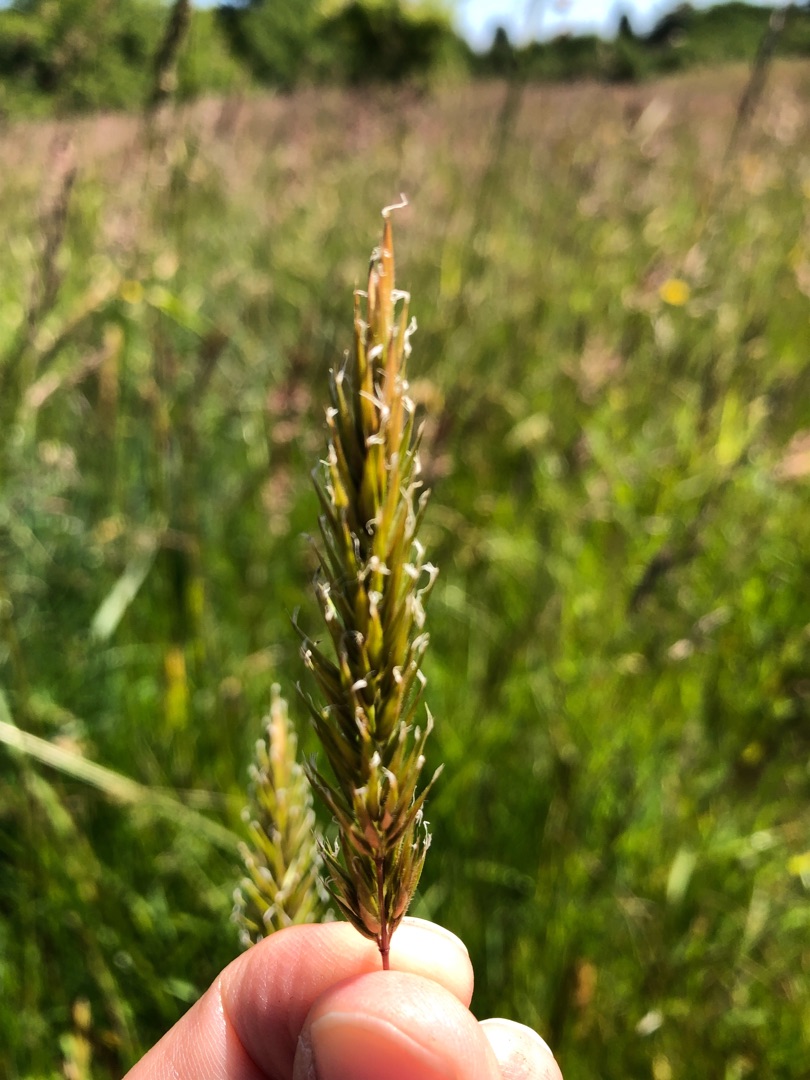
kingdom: Plantae
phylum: Tracheophyta
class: Liliopsida
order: Poales
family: Poaceae
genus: Anthoxanthum
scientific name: Anthoxanthum odoratum
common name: Vellugtende gulaks
